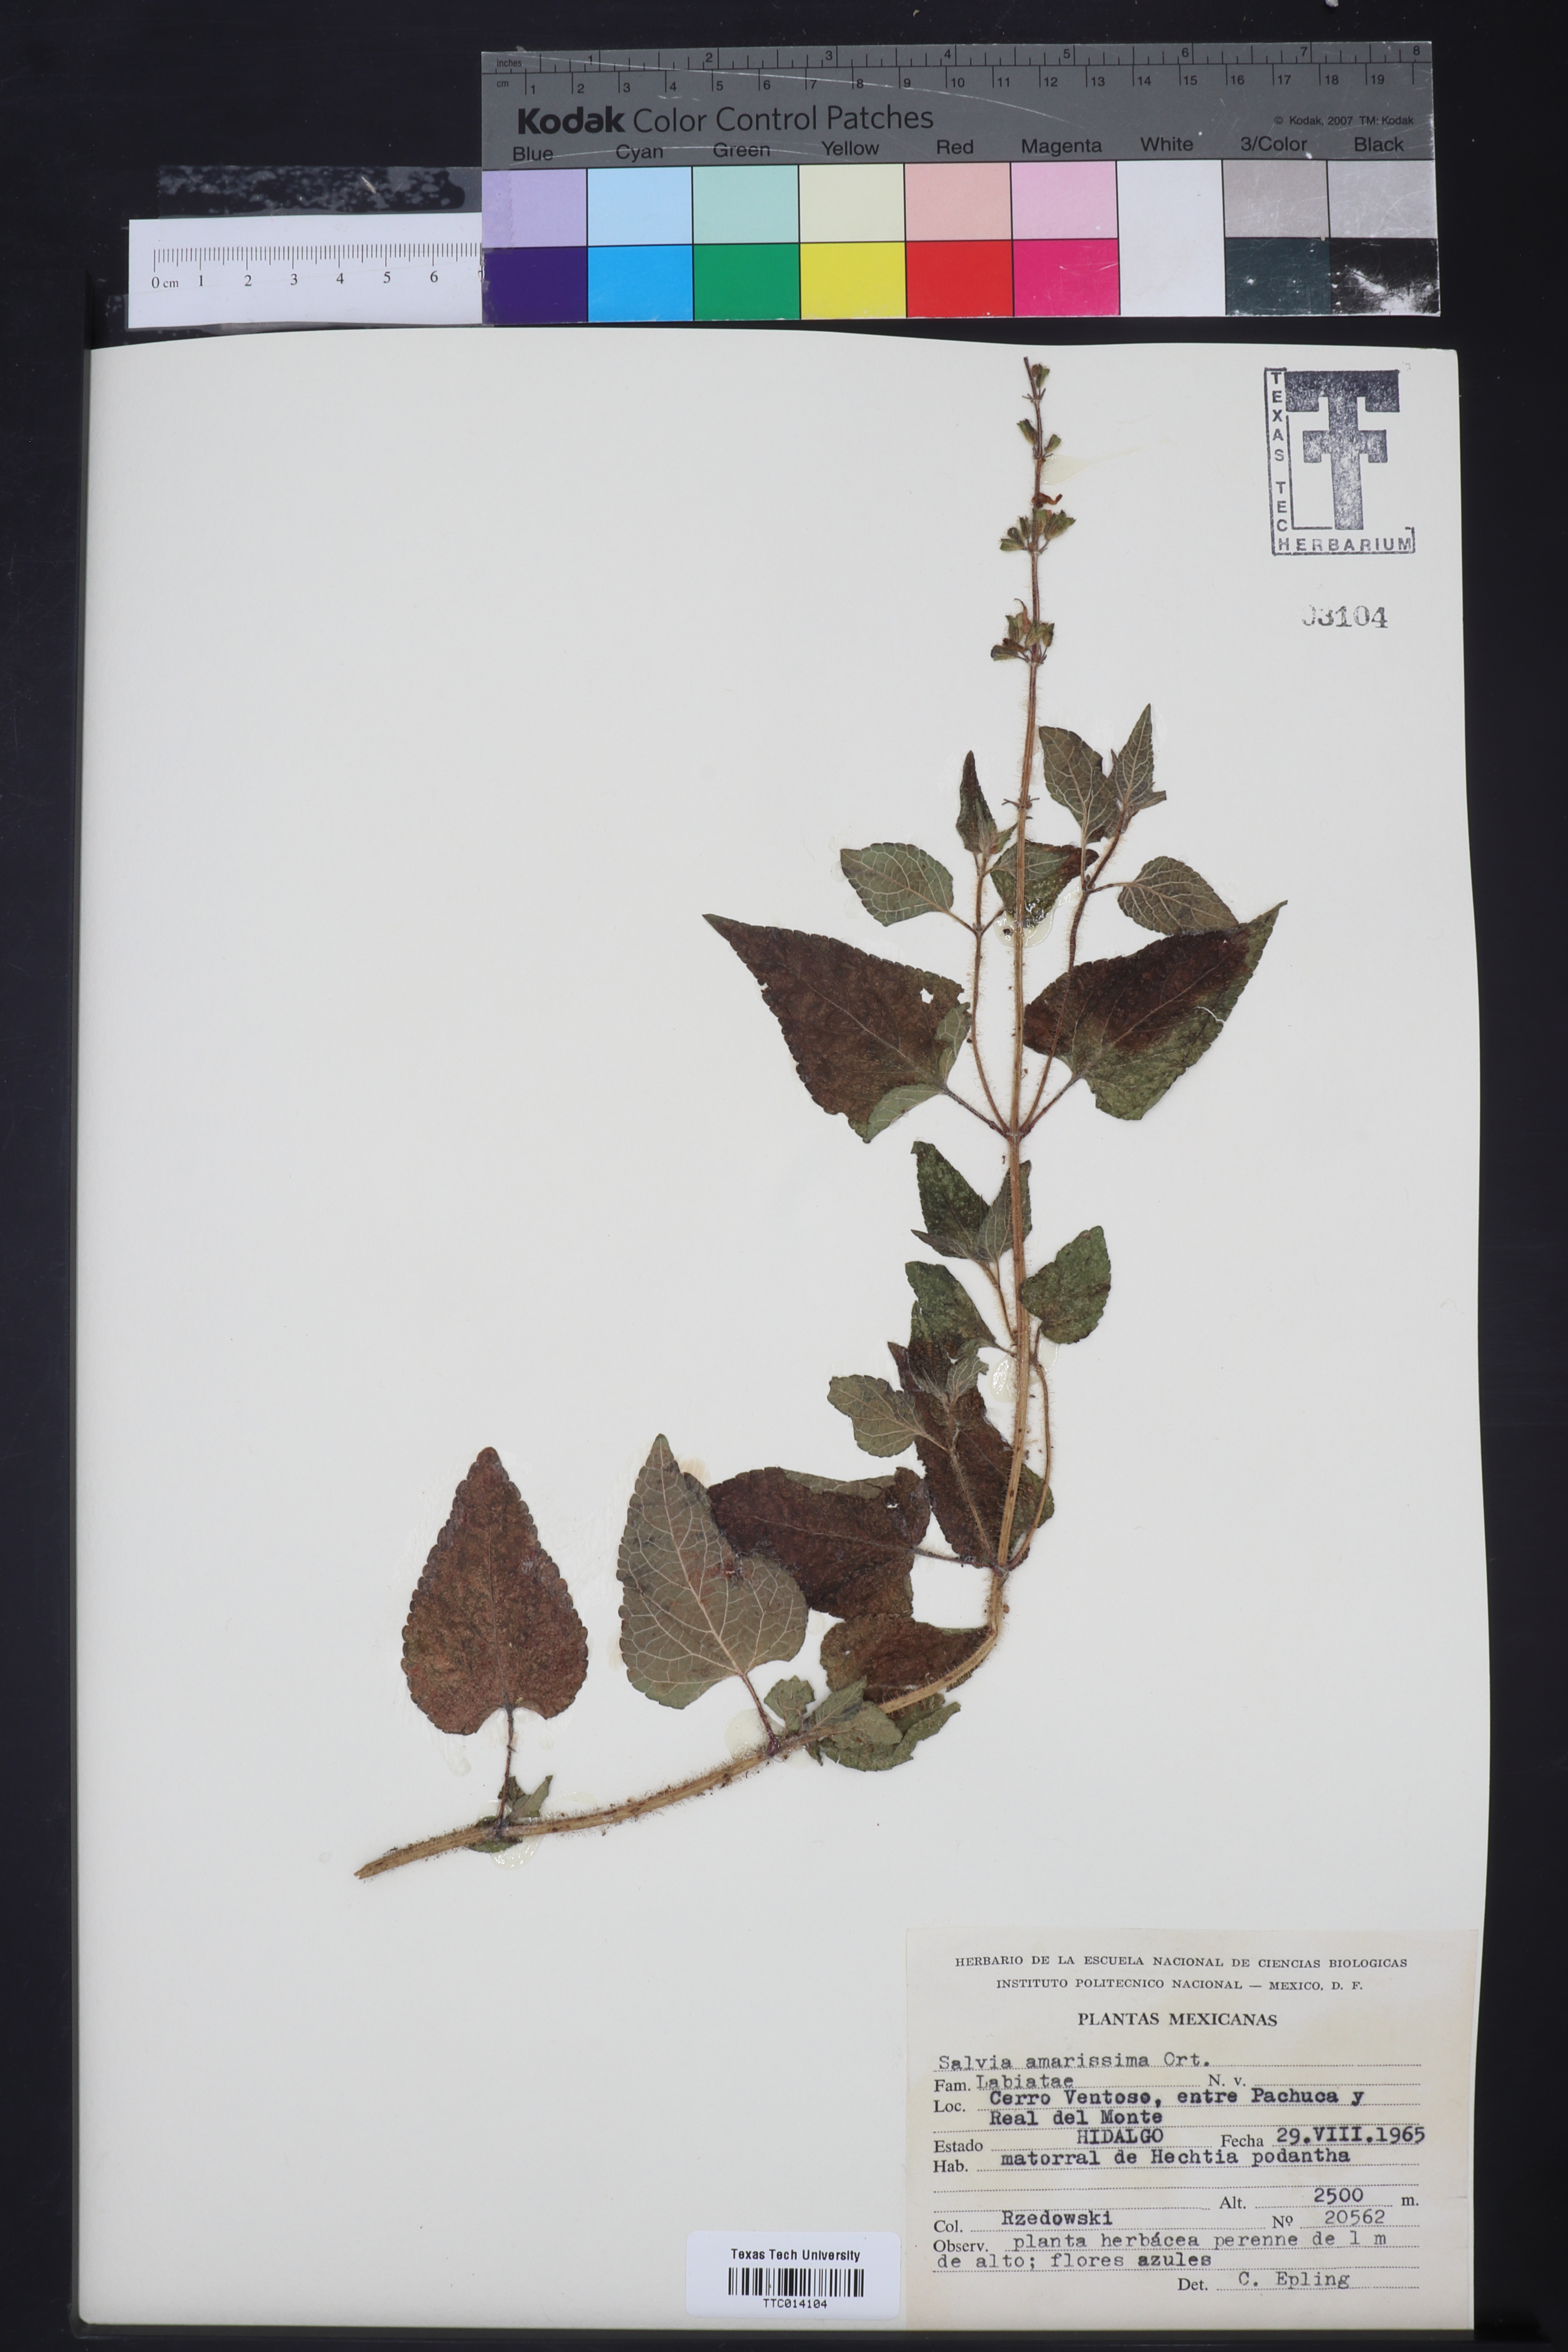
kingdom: Plantae
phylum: Tracheophyta
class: Magnoliopsida
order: Lamiales
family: Lamiaceae
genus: Salvia
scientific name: Salvia circinnata
